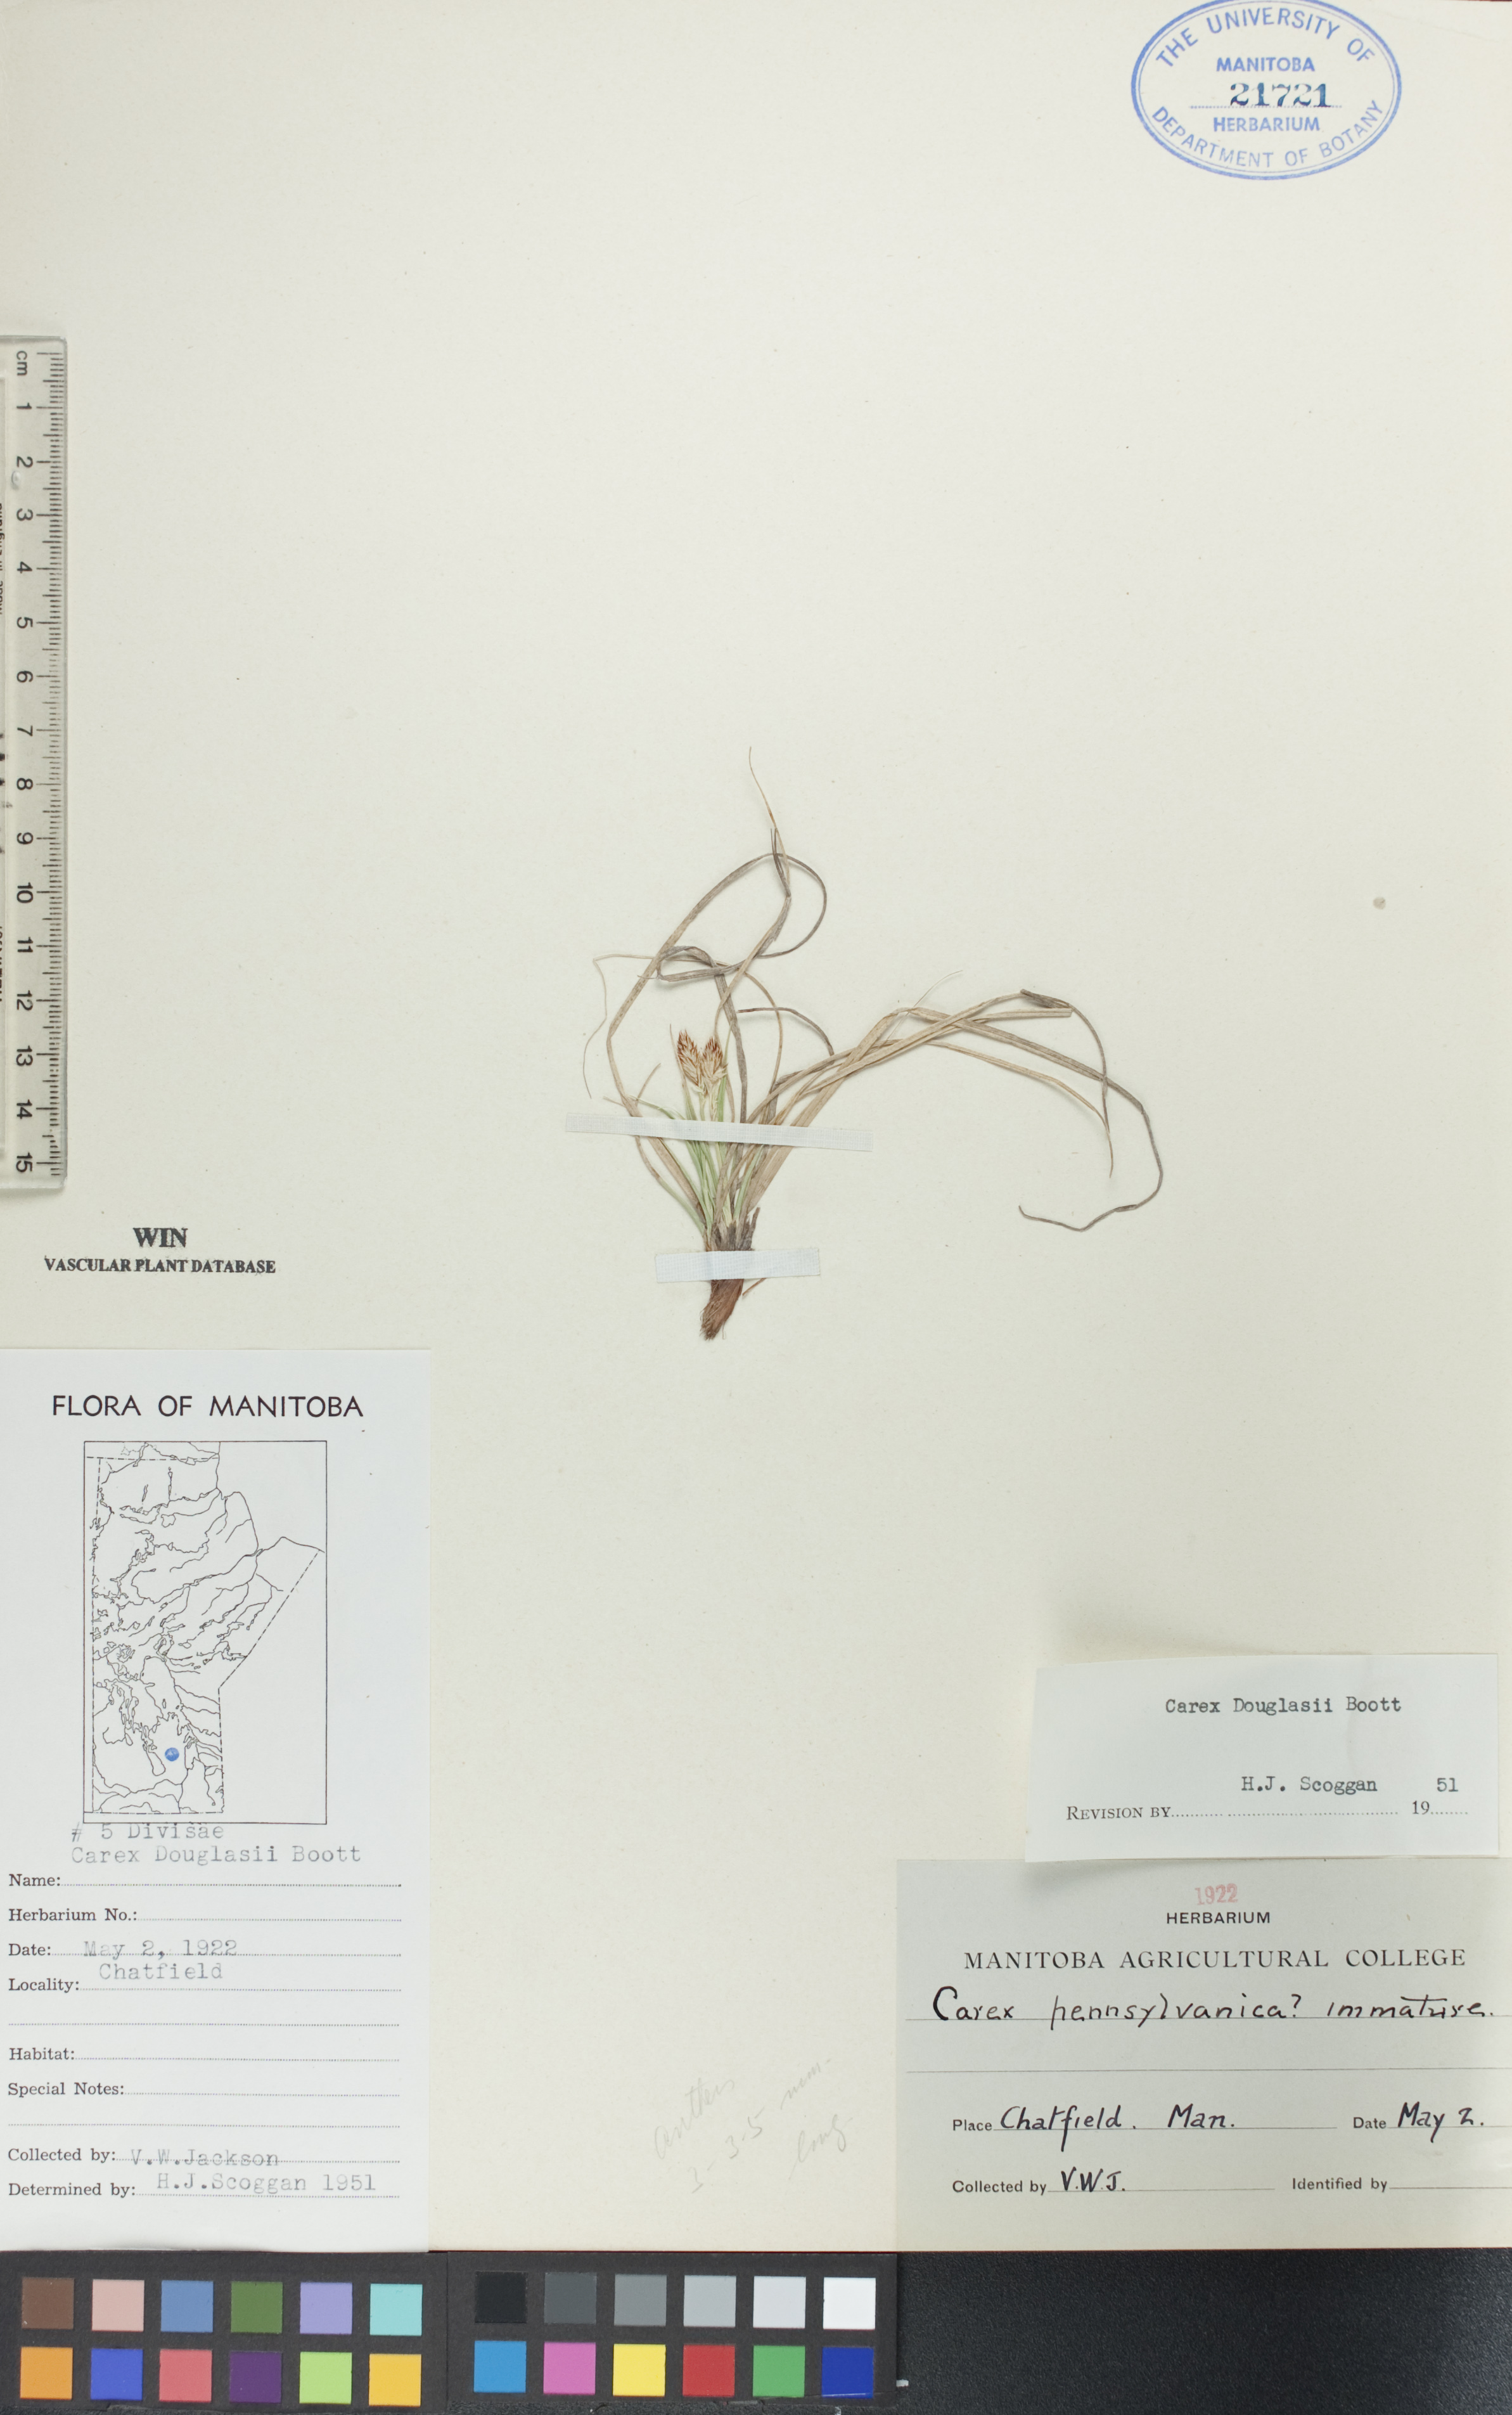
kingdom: Plantae
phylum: Tracheophyta
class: Liliopsida
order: Poales
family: Cyperaceae
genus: Carex
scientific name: Carex douglasii
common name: Douglas' sedge
